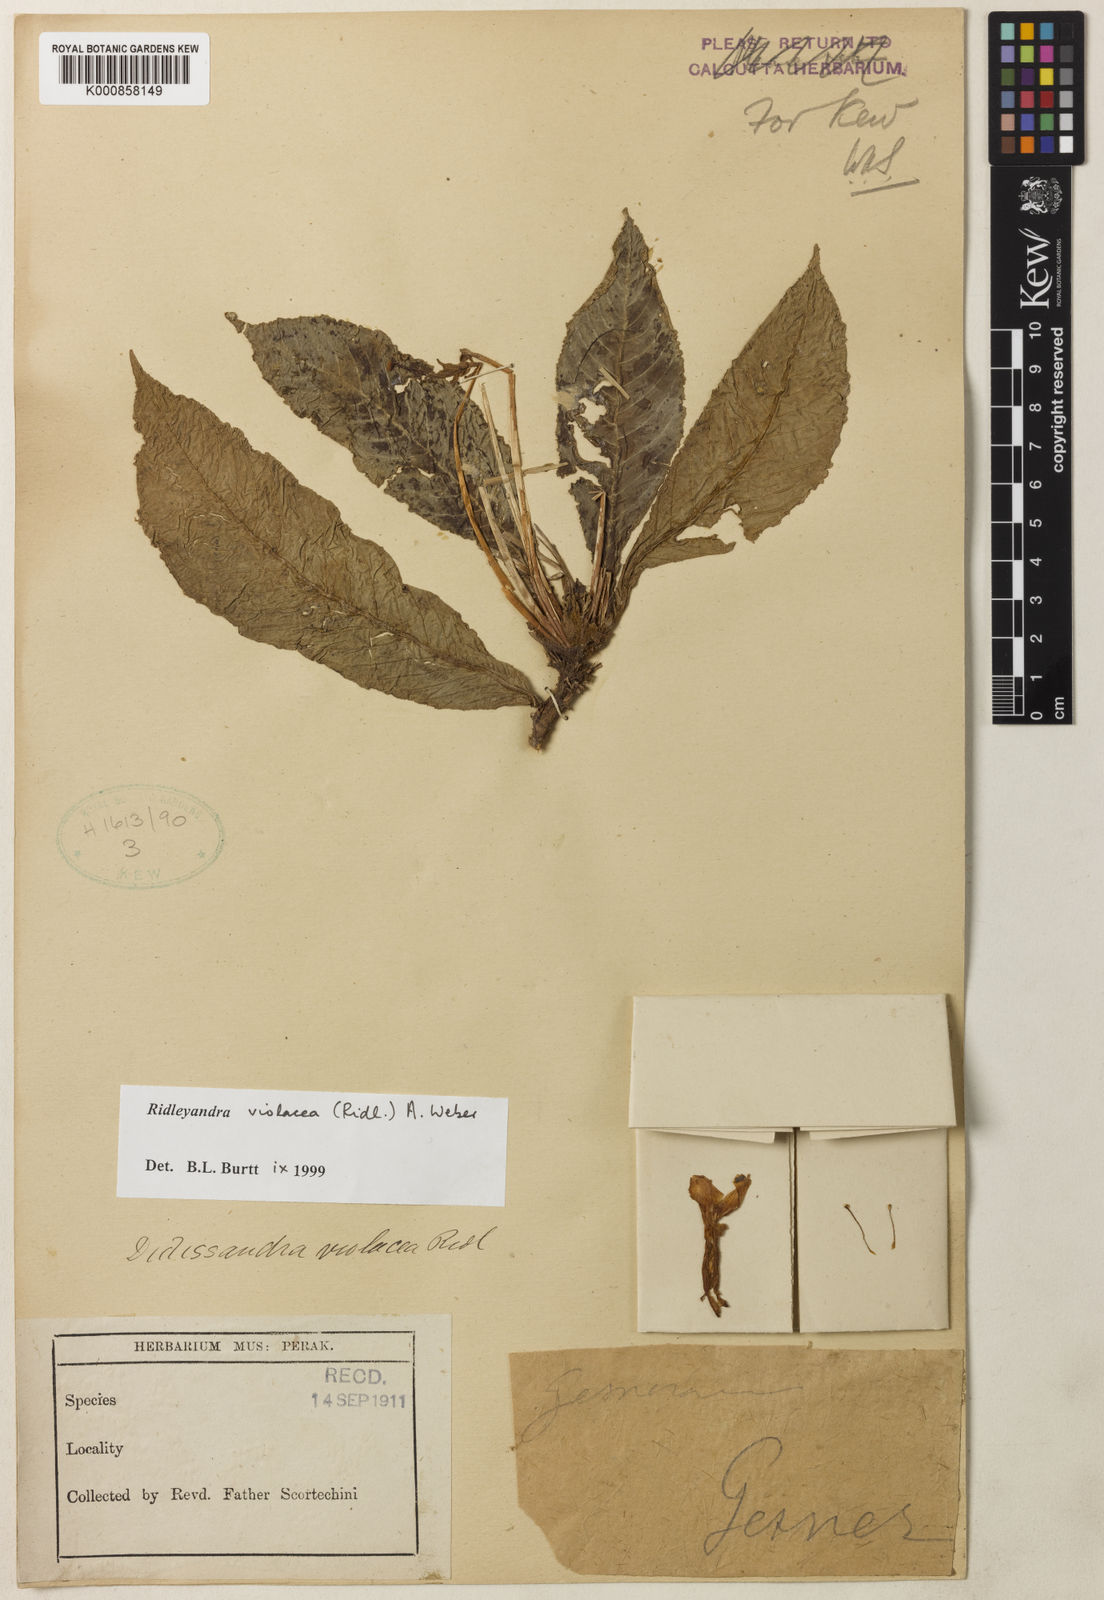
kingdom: Plantae
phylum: Tracheophyta
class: Magnoliopsida
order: Lamiales
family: Gesneriaceae
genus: Ridleyandra
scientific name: Ridleyandra violacea
